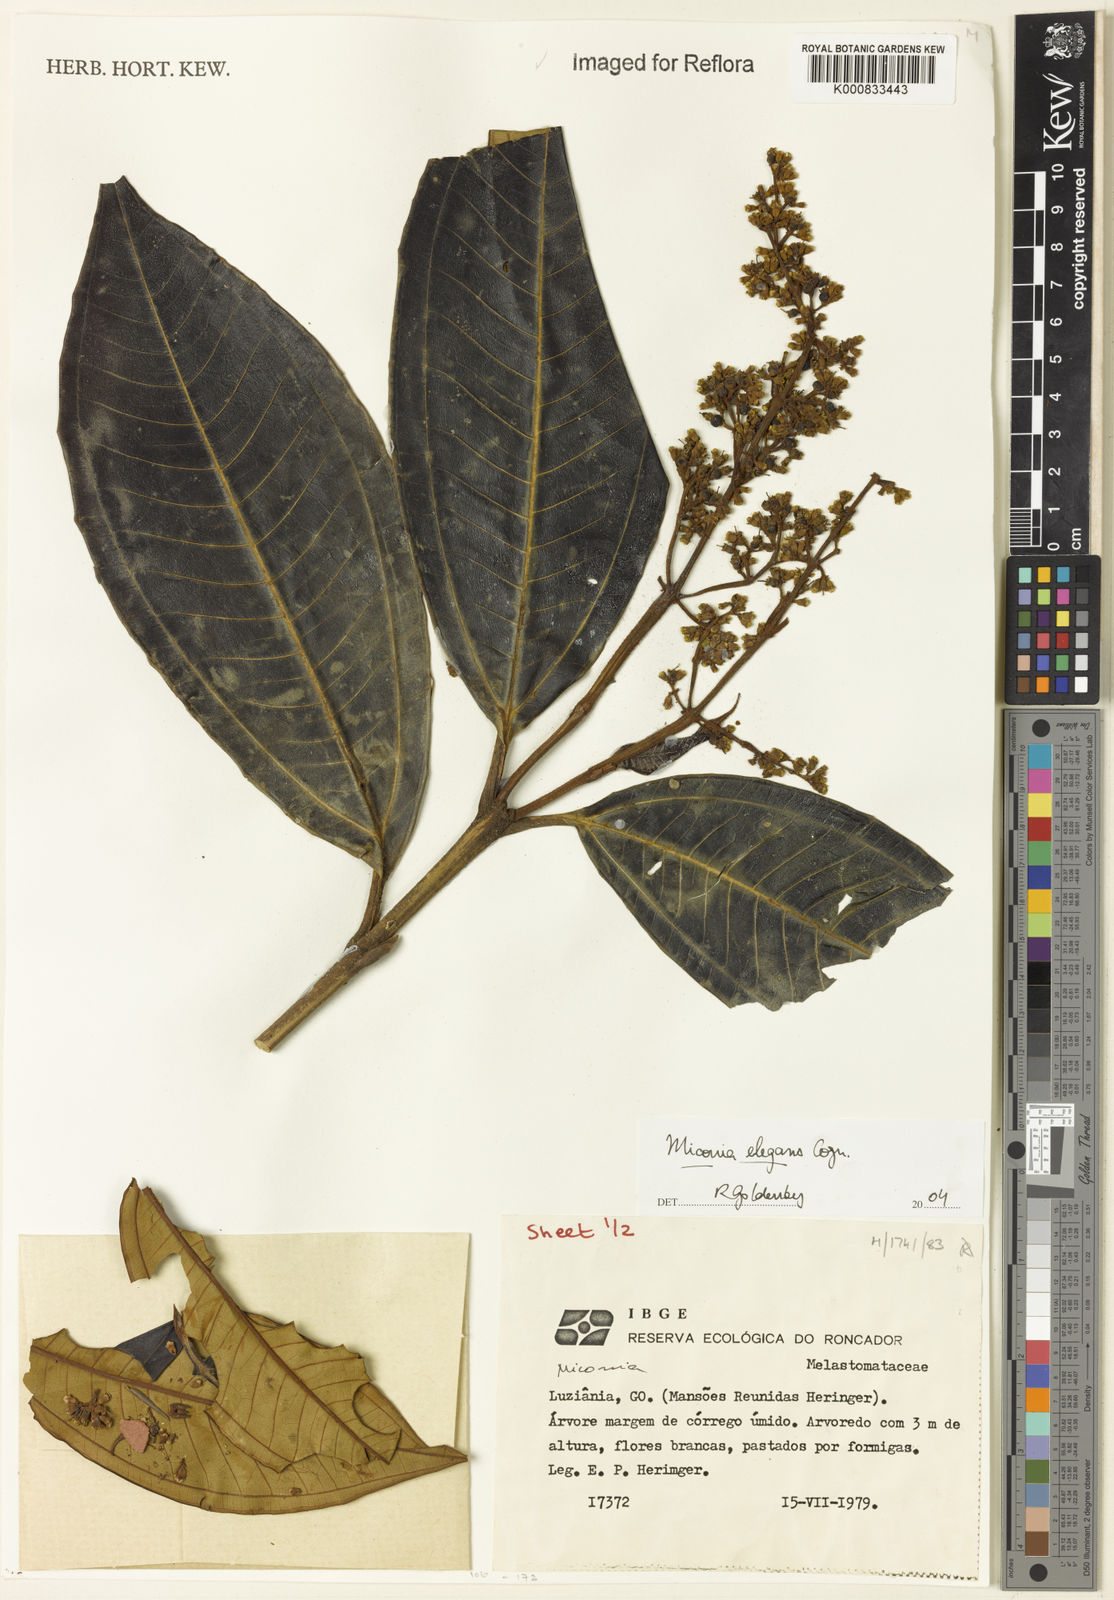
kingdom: Plantae
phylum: Tracheophyta
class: Magnoliopsida
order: Myrtales
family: Melastomataceae
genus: Miconia
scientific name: Miconia elegans
